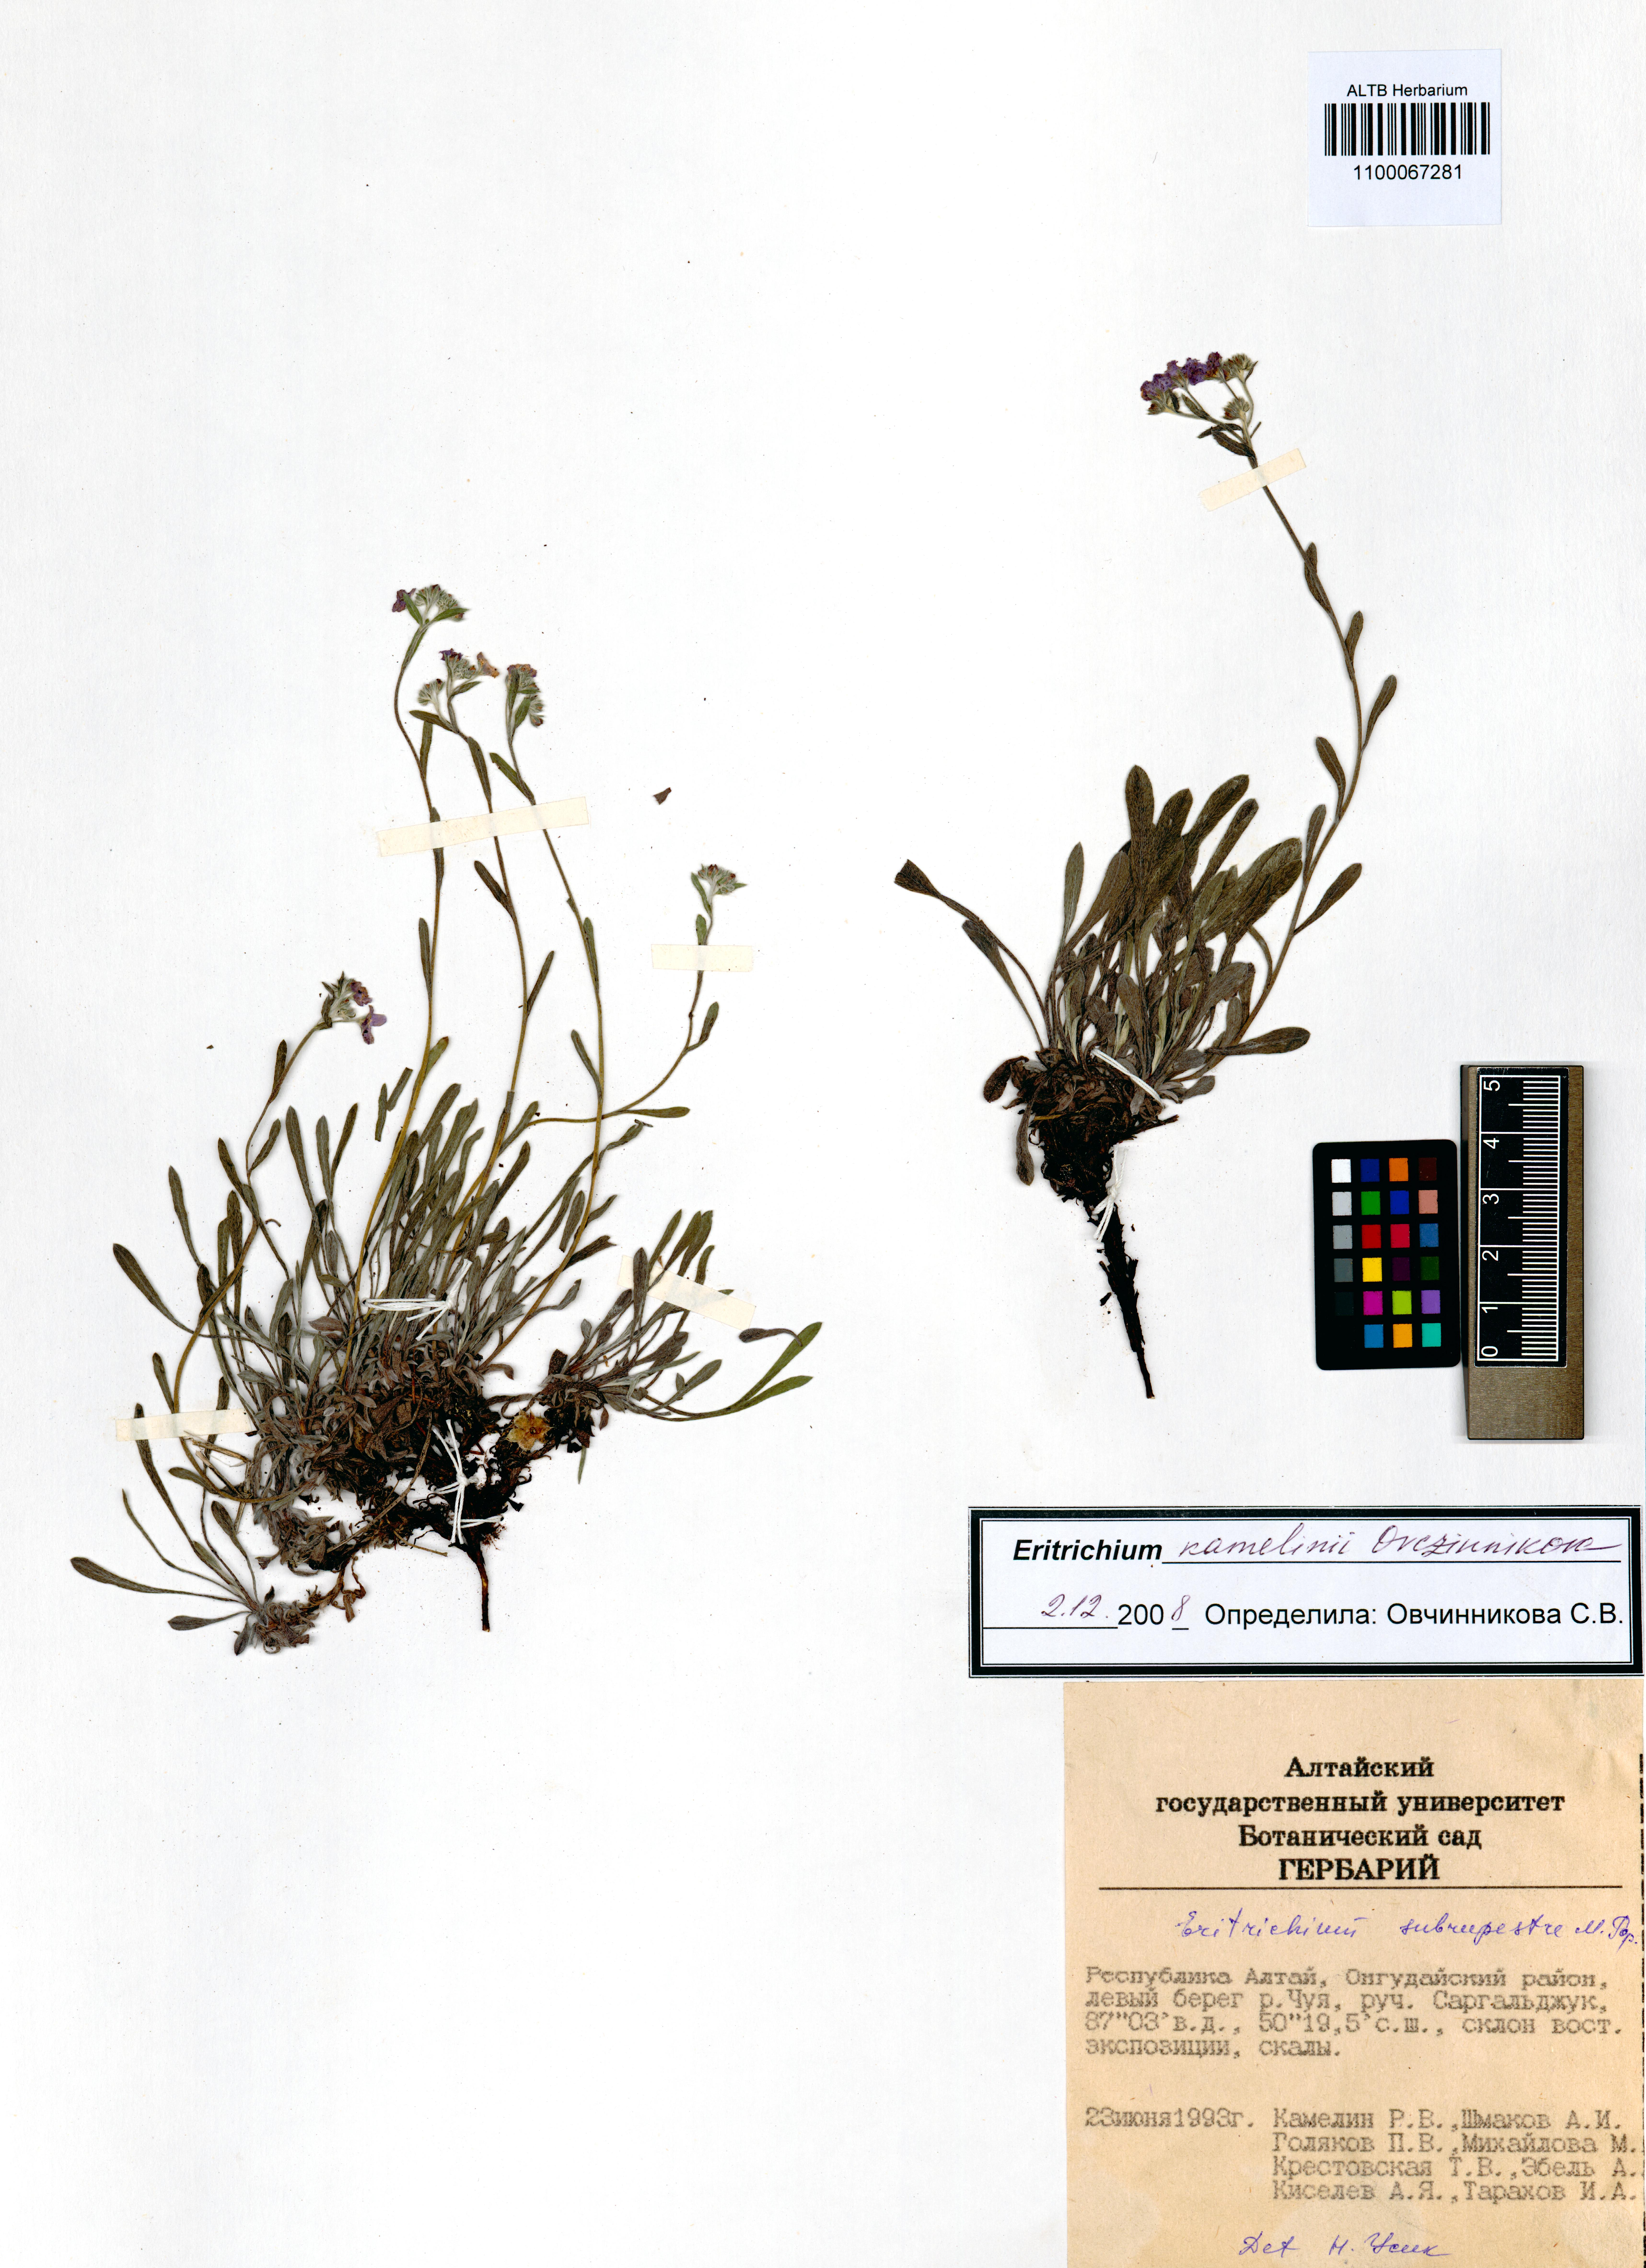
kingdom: Plantae
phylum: Tracheophyta
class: Magnoliopsida
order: Boraginales
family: Boraginaceae
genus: Eritrichium
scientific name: Eritrichium kamelinii
